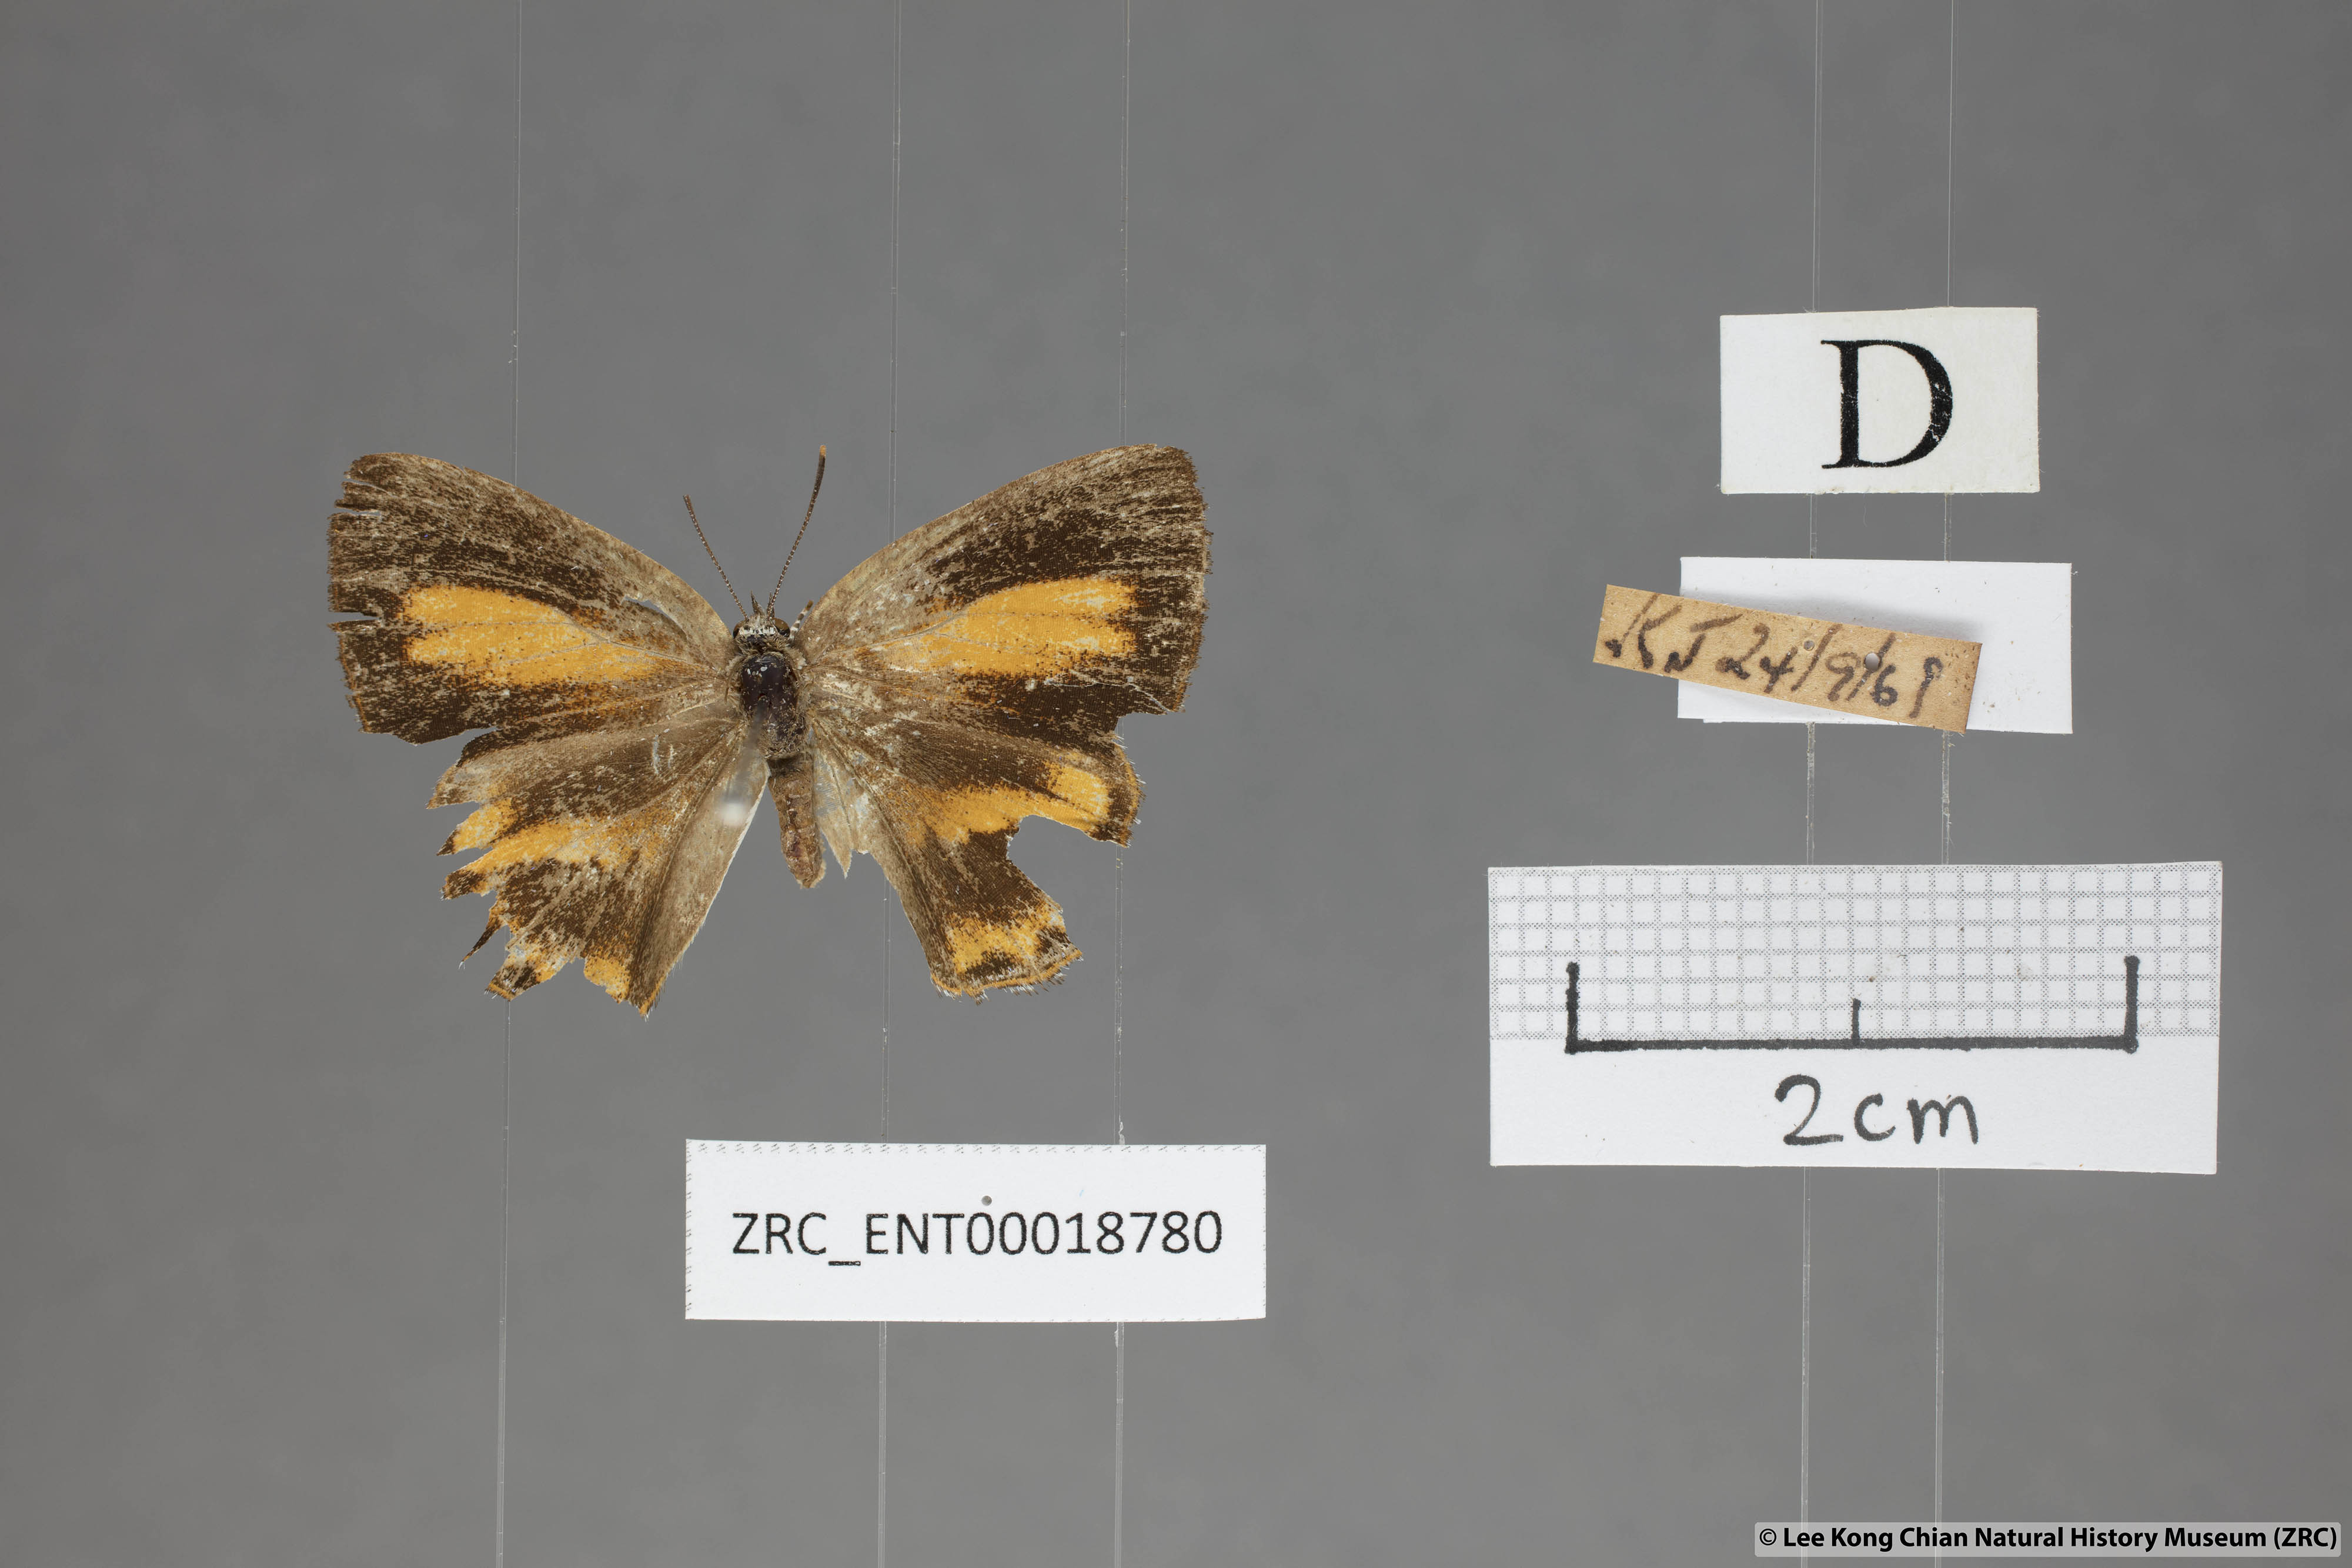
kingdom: Animalia
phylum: Arthropoda
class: Insecta
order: Lepidoptera
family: Lycaenidae
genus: Poritia
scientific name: Poritia erycinoides
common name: Blue gem
